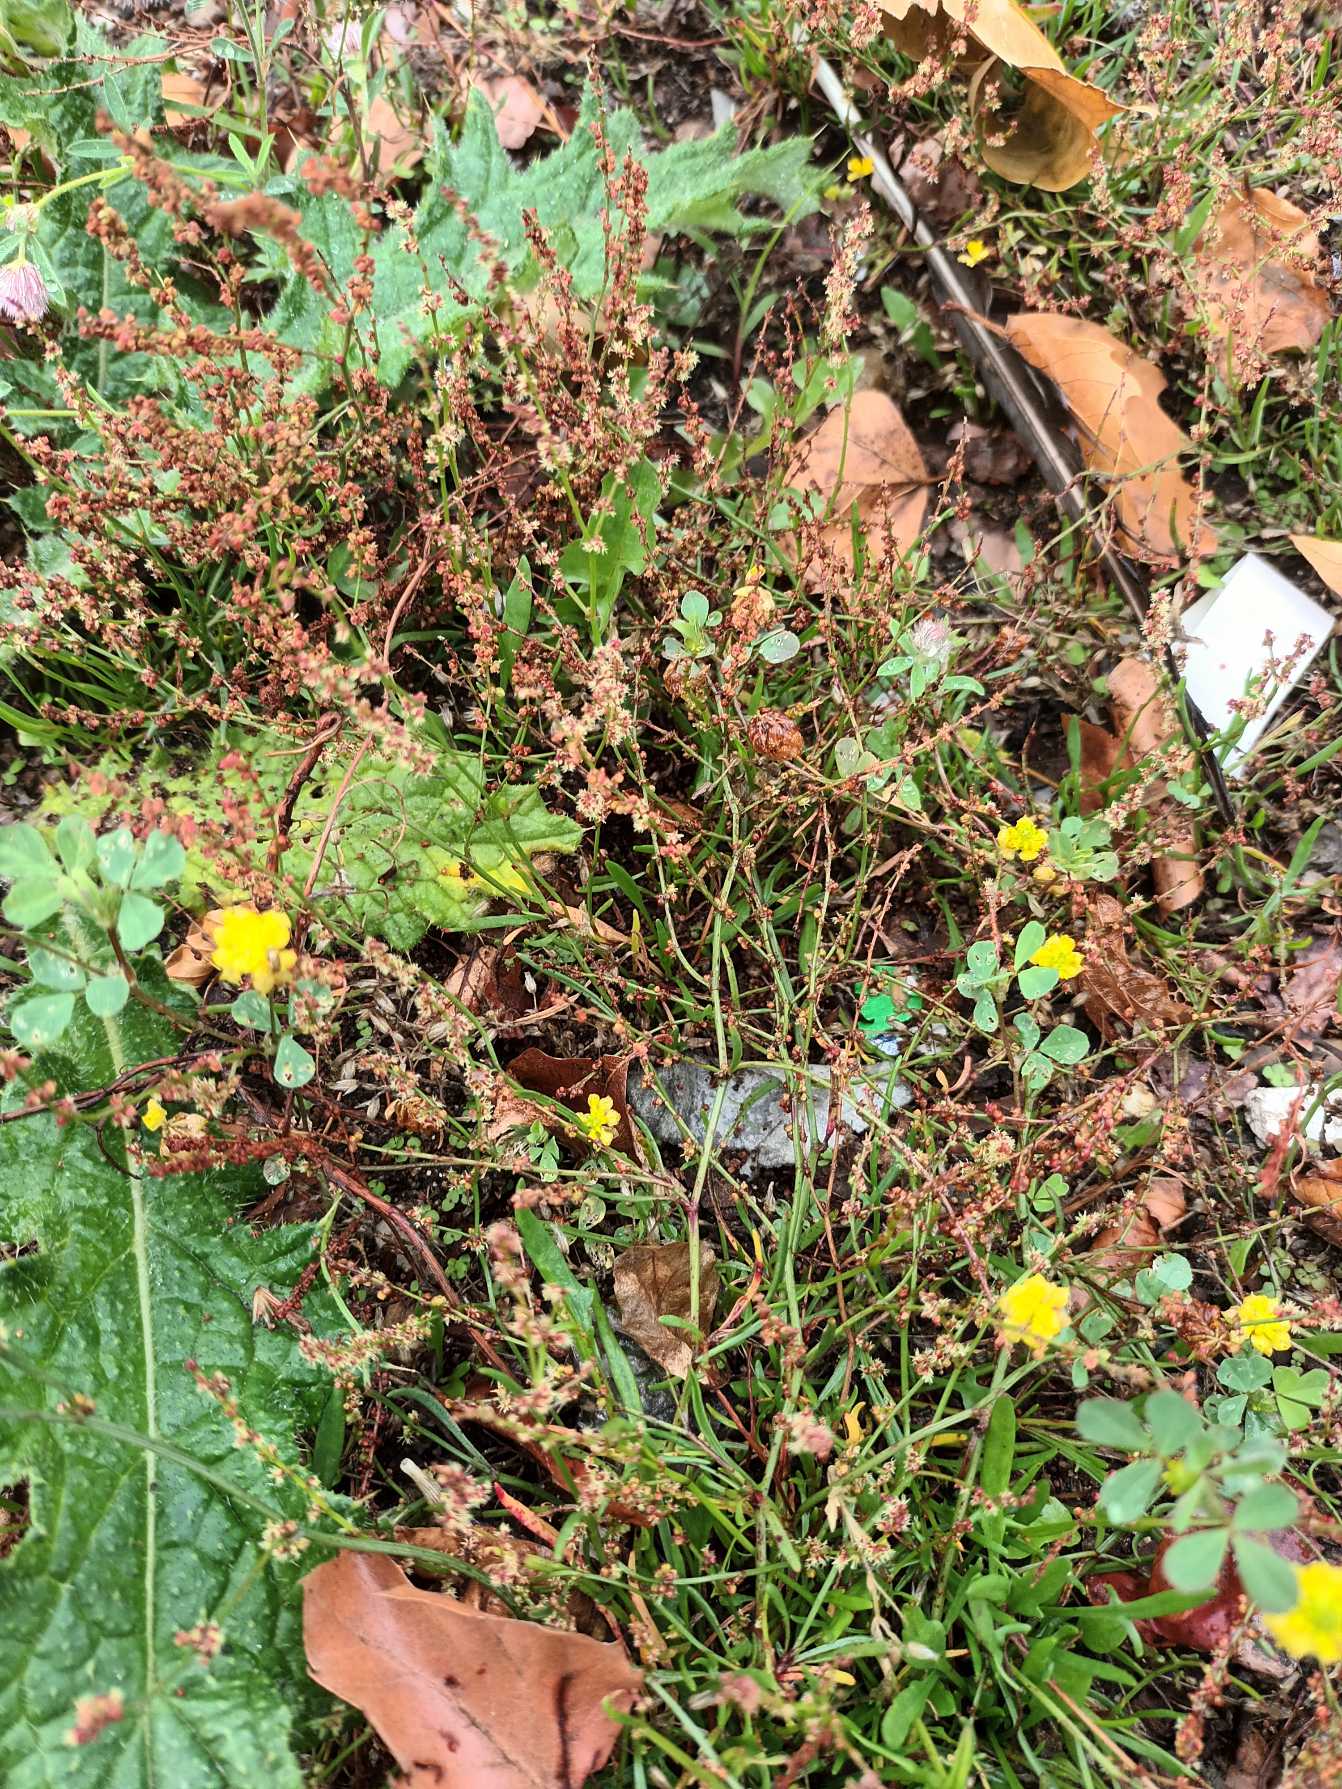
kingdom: Plantae
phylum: Tracheophyta
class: Magnoliopsida
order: Caryophyllales
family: Polygonaceae
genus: Rumex
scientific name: Rumex acetosella
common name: Rødknæ
